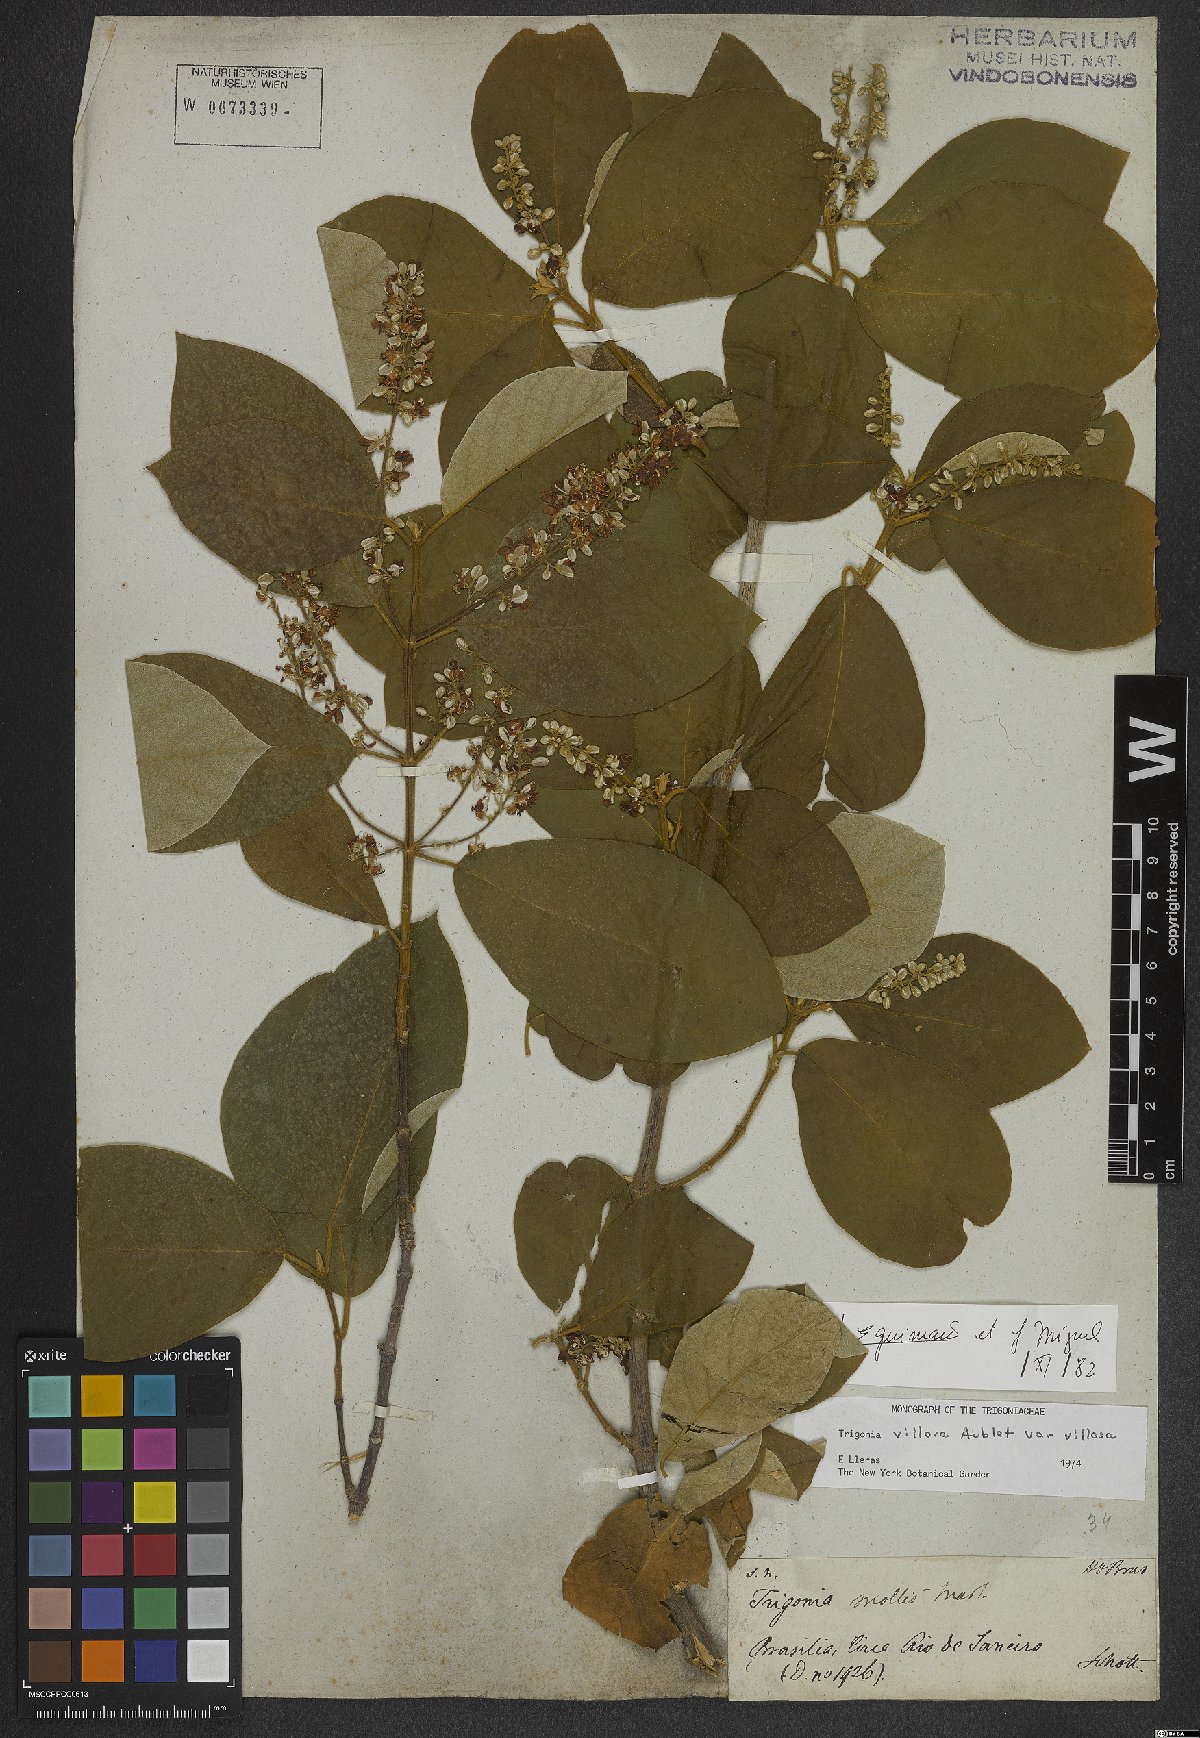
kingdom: Plantae
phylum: Tracheophyta
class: Magnoliopsida
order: Malpighiales
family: Trigoniaceae
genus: Trigonia
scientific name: Trigonia villosa
